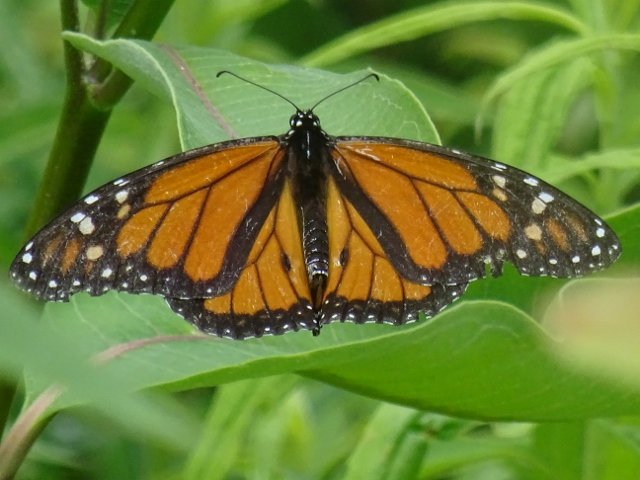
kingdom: Animalia
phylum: Arthropoda
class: Insecta
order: Lepidoptera
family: Nymphalidae
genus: Danaus
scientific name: Danaus plexippus
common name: Monarch
